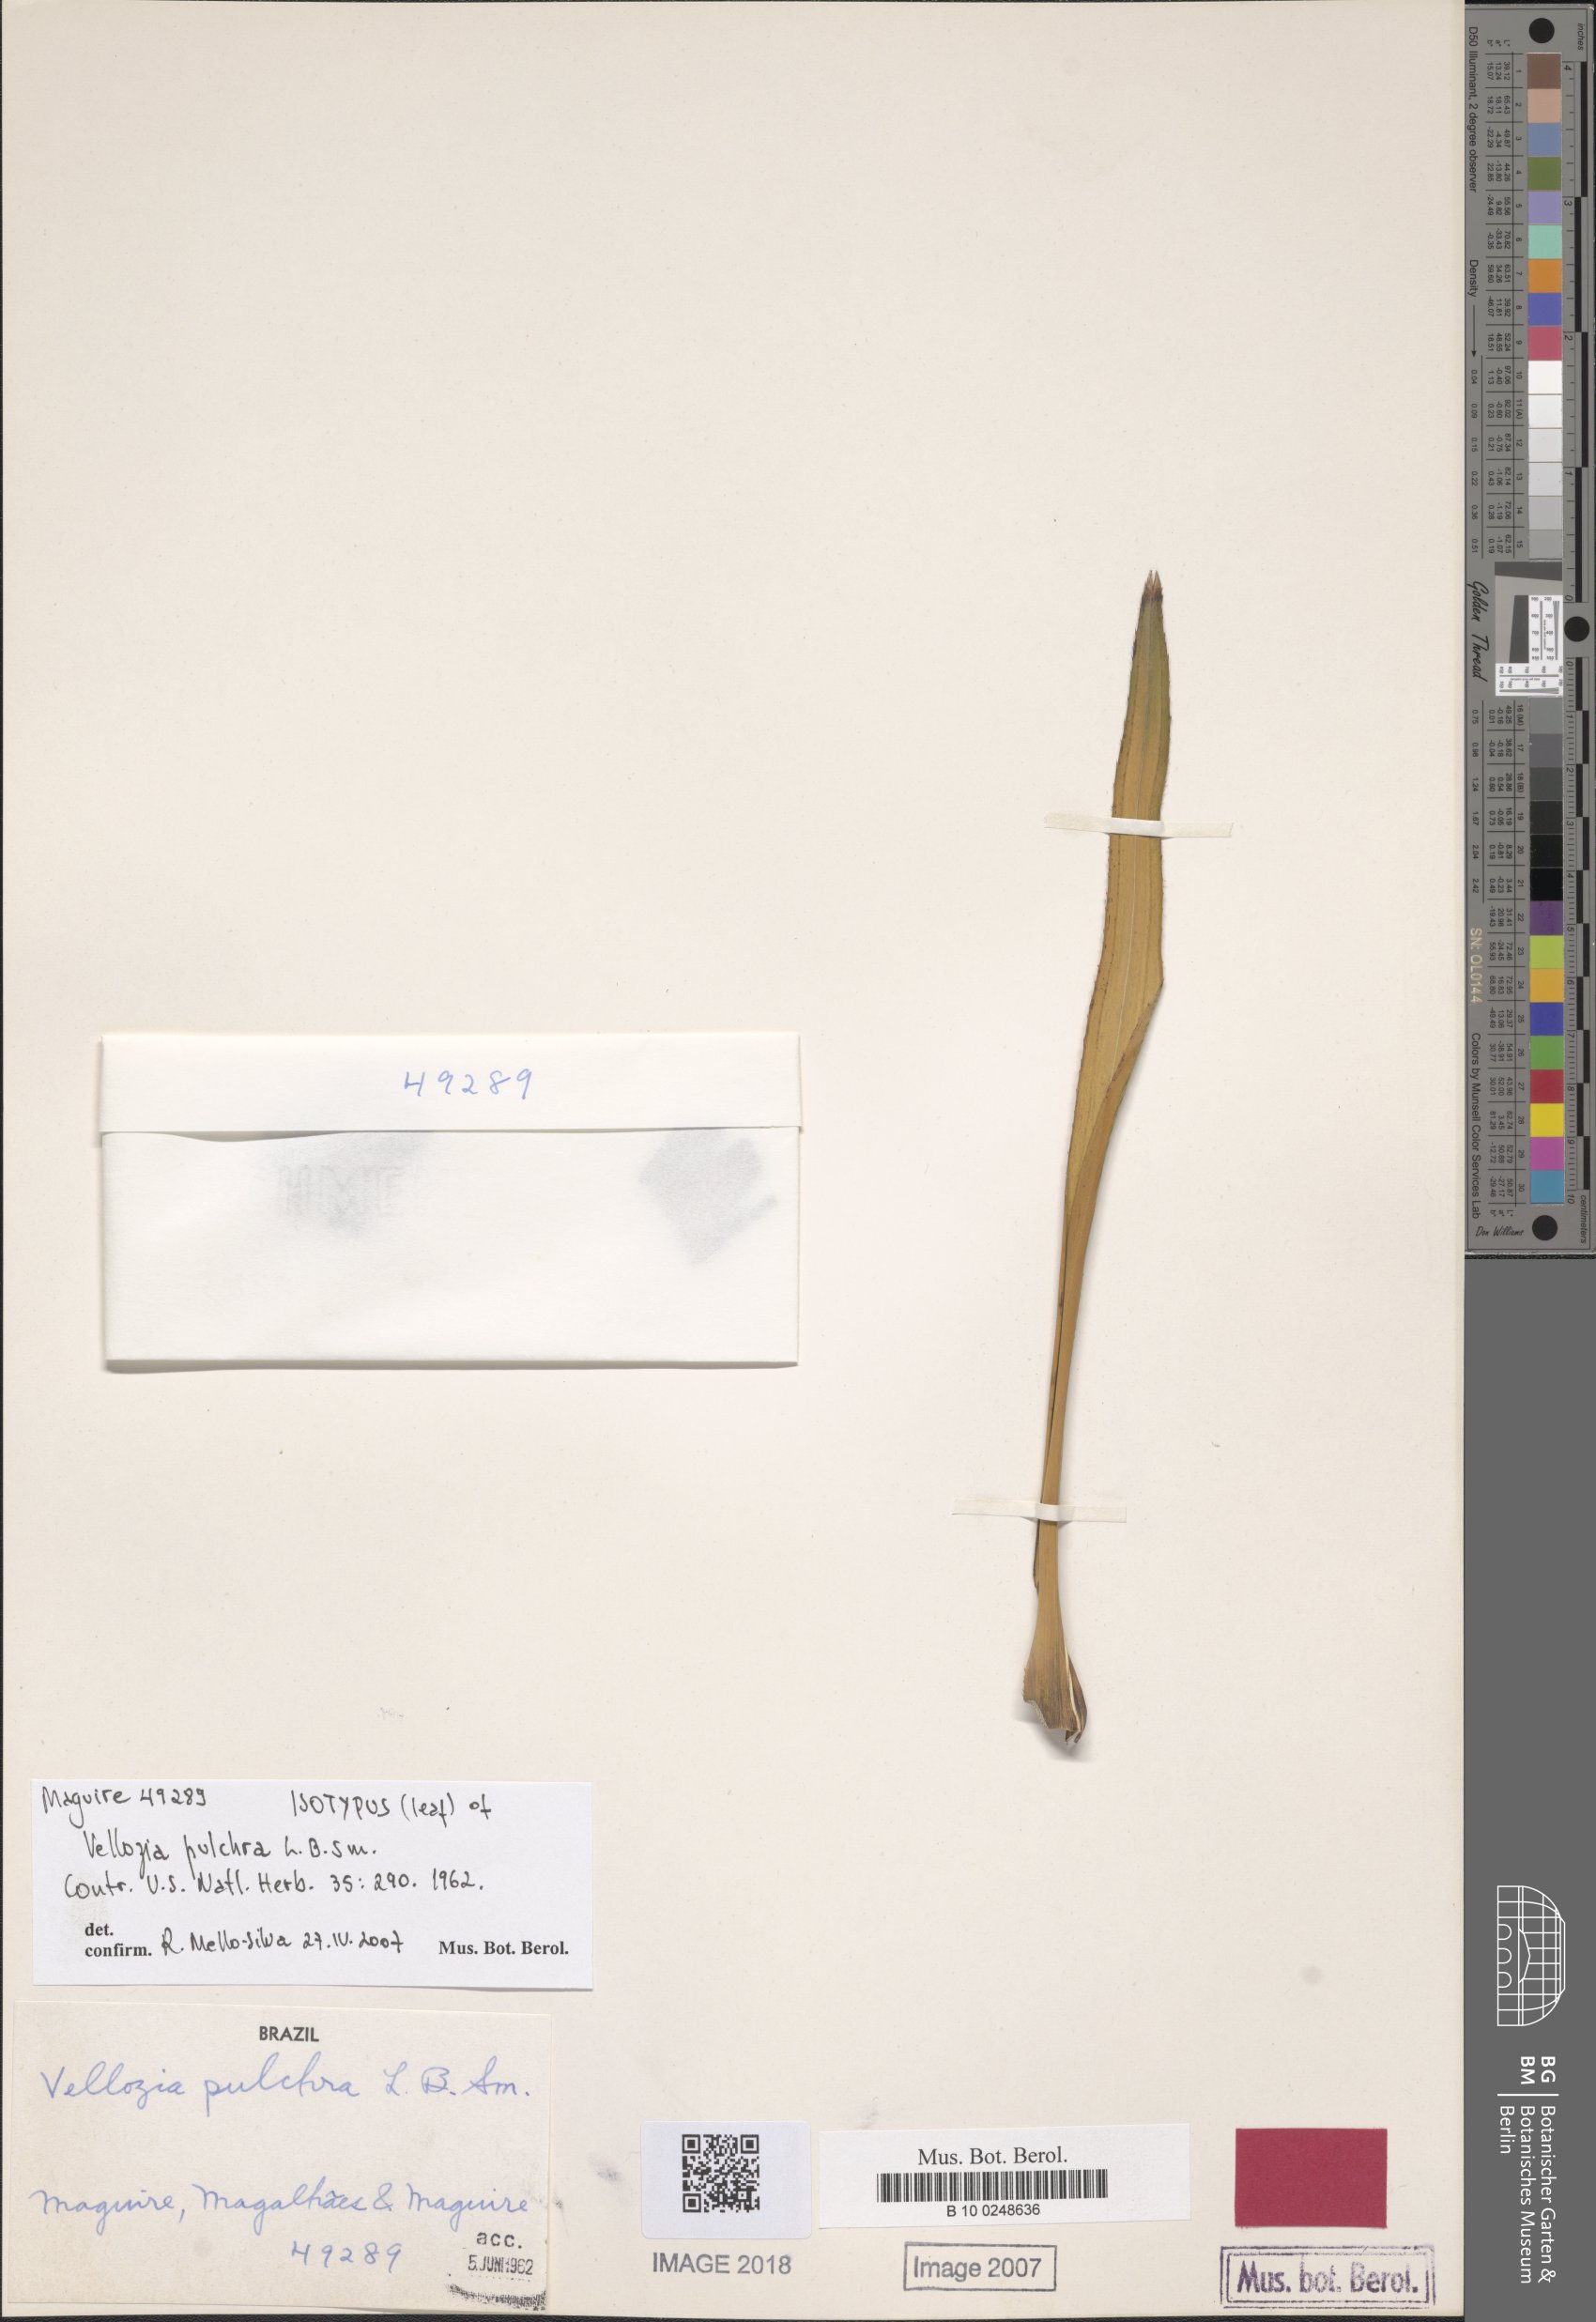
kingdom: Plantae
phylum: Tracheophyta
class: Liliopsida
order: Pandanales
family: Velloziaceae
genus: Vellozia
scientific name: Vellozia pulchra
